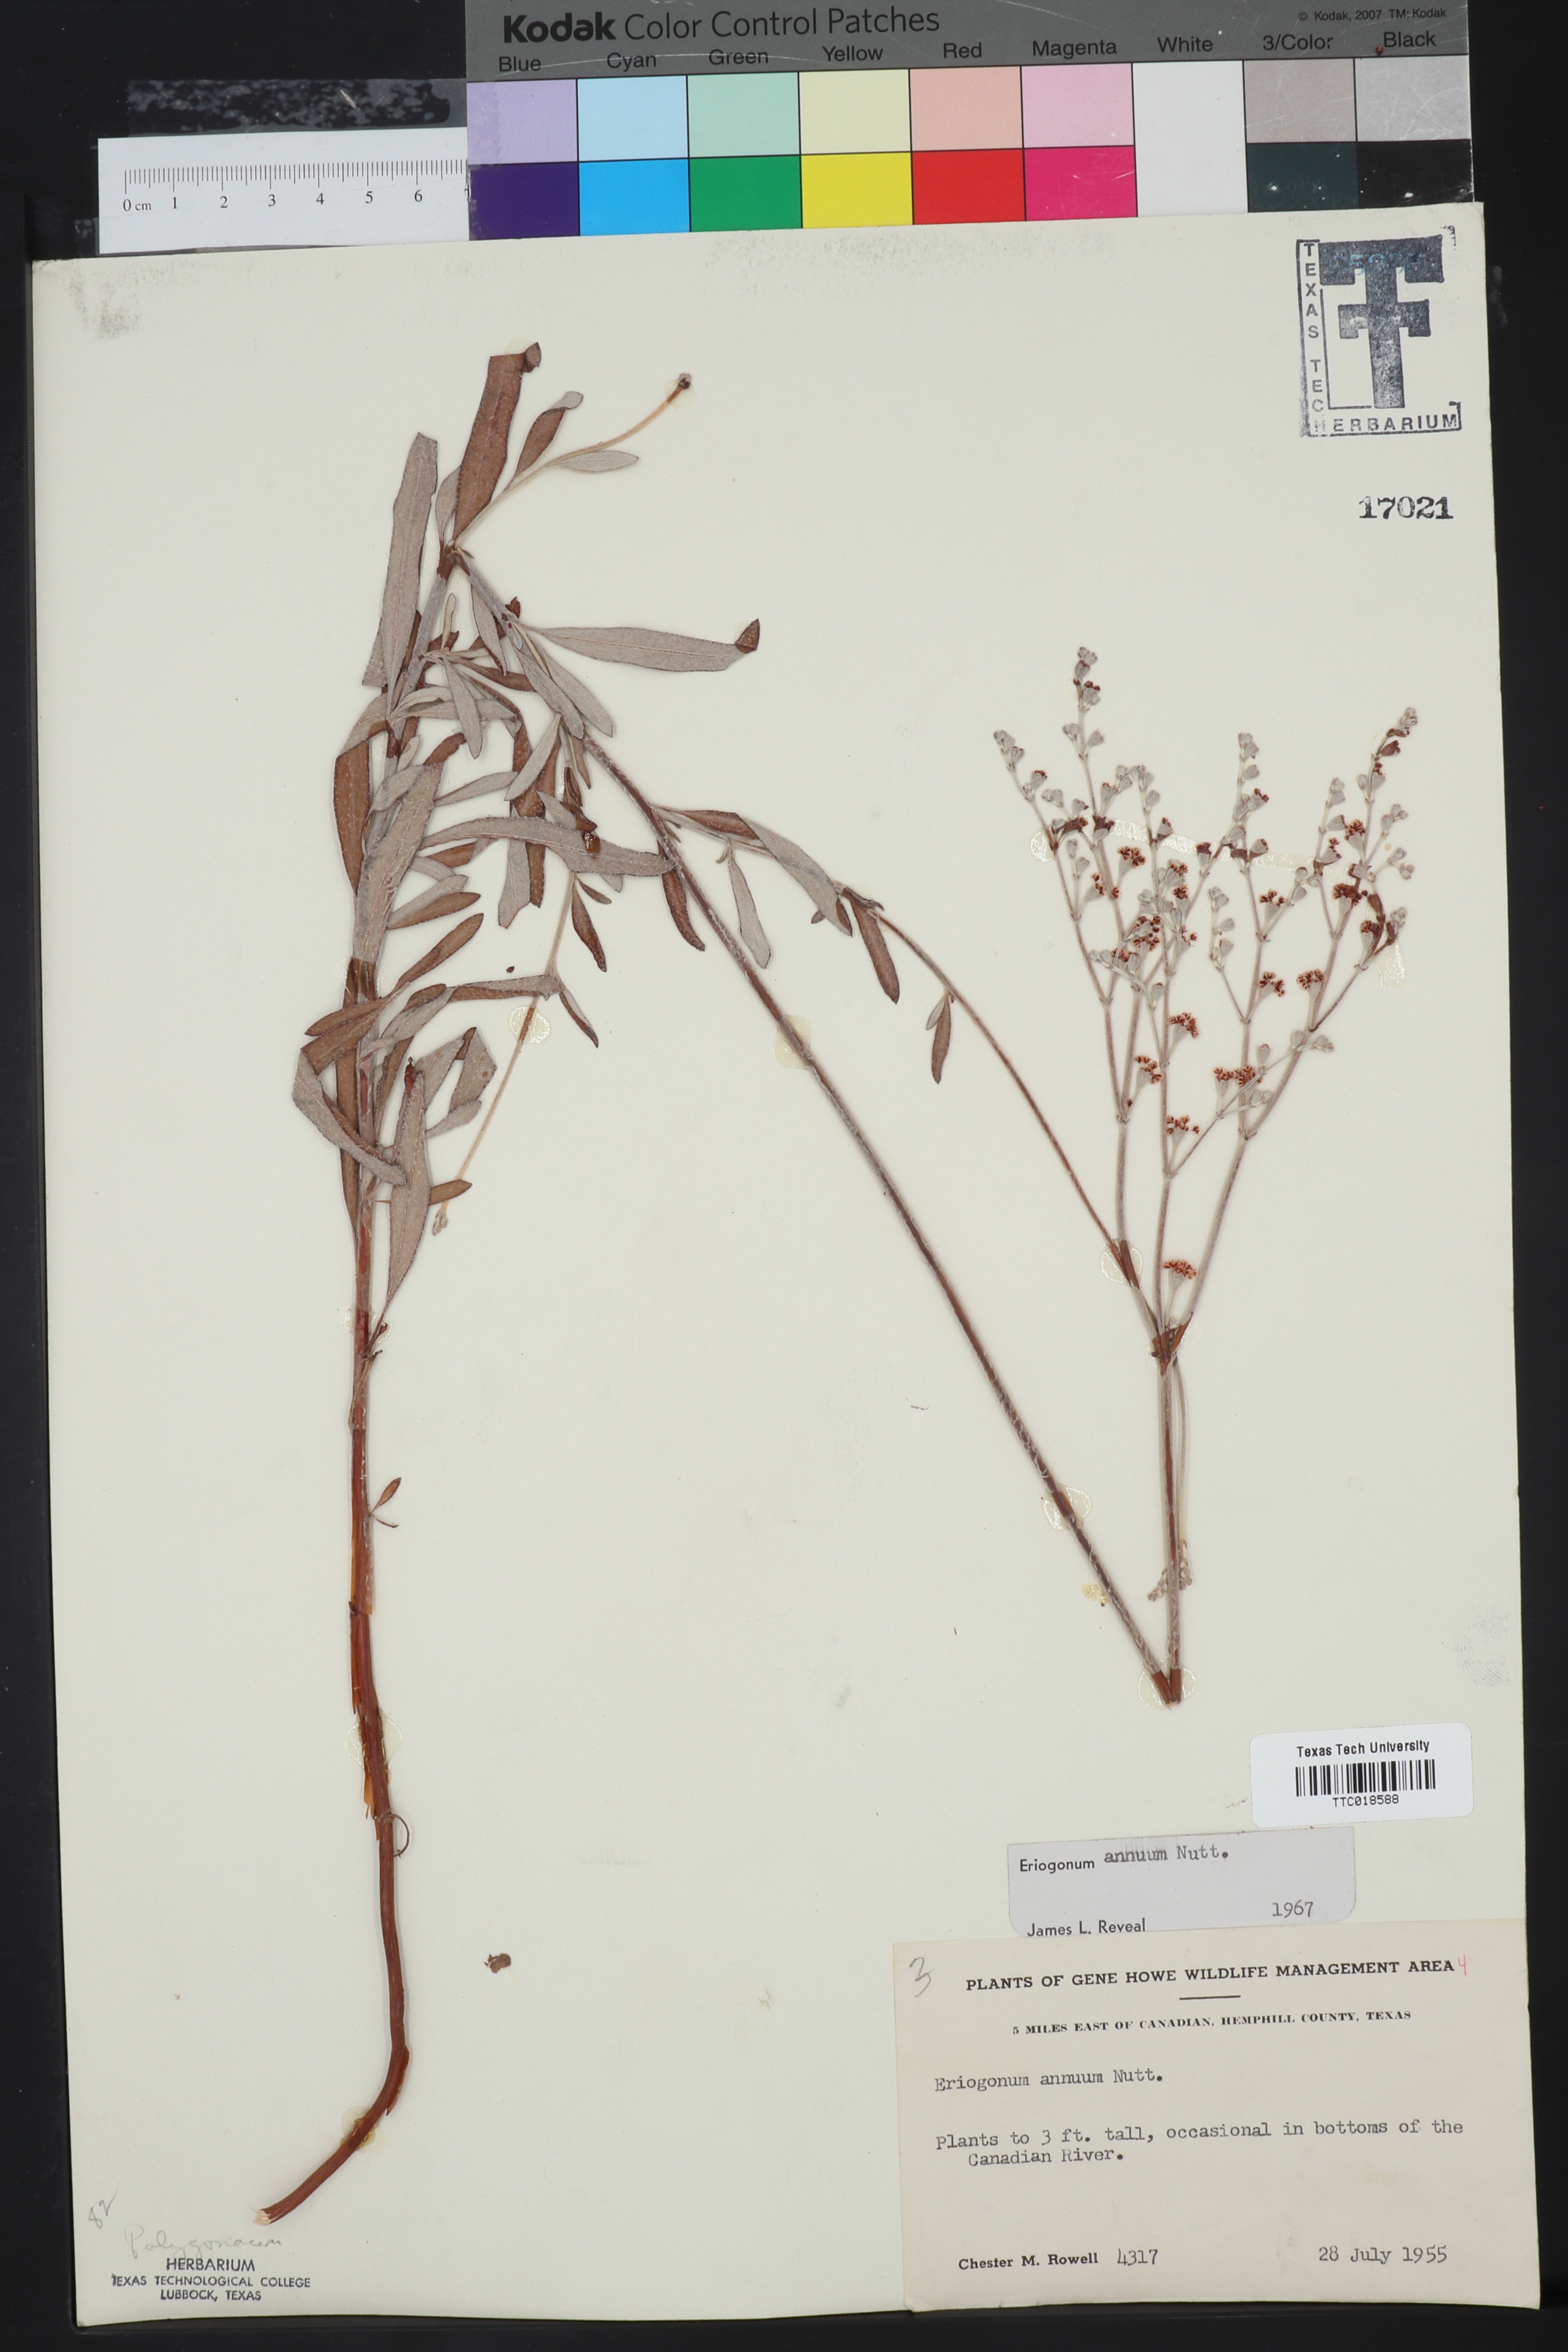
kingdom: Plantae
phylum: Tracheophyta
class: Magnoliopsida
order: Caryophyllales
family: Polygonaceae
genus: Eriogonum
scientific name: Eriogonum annuum
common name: Annual wild buckwheat
